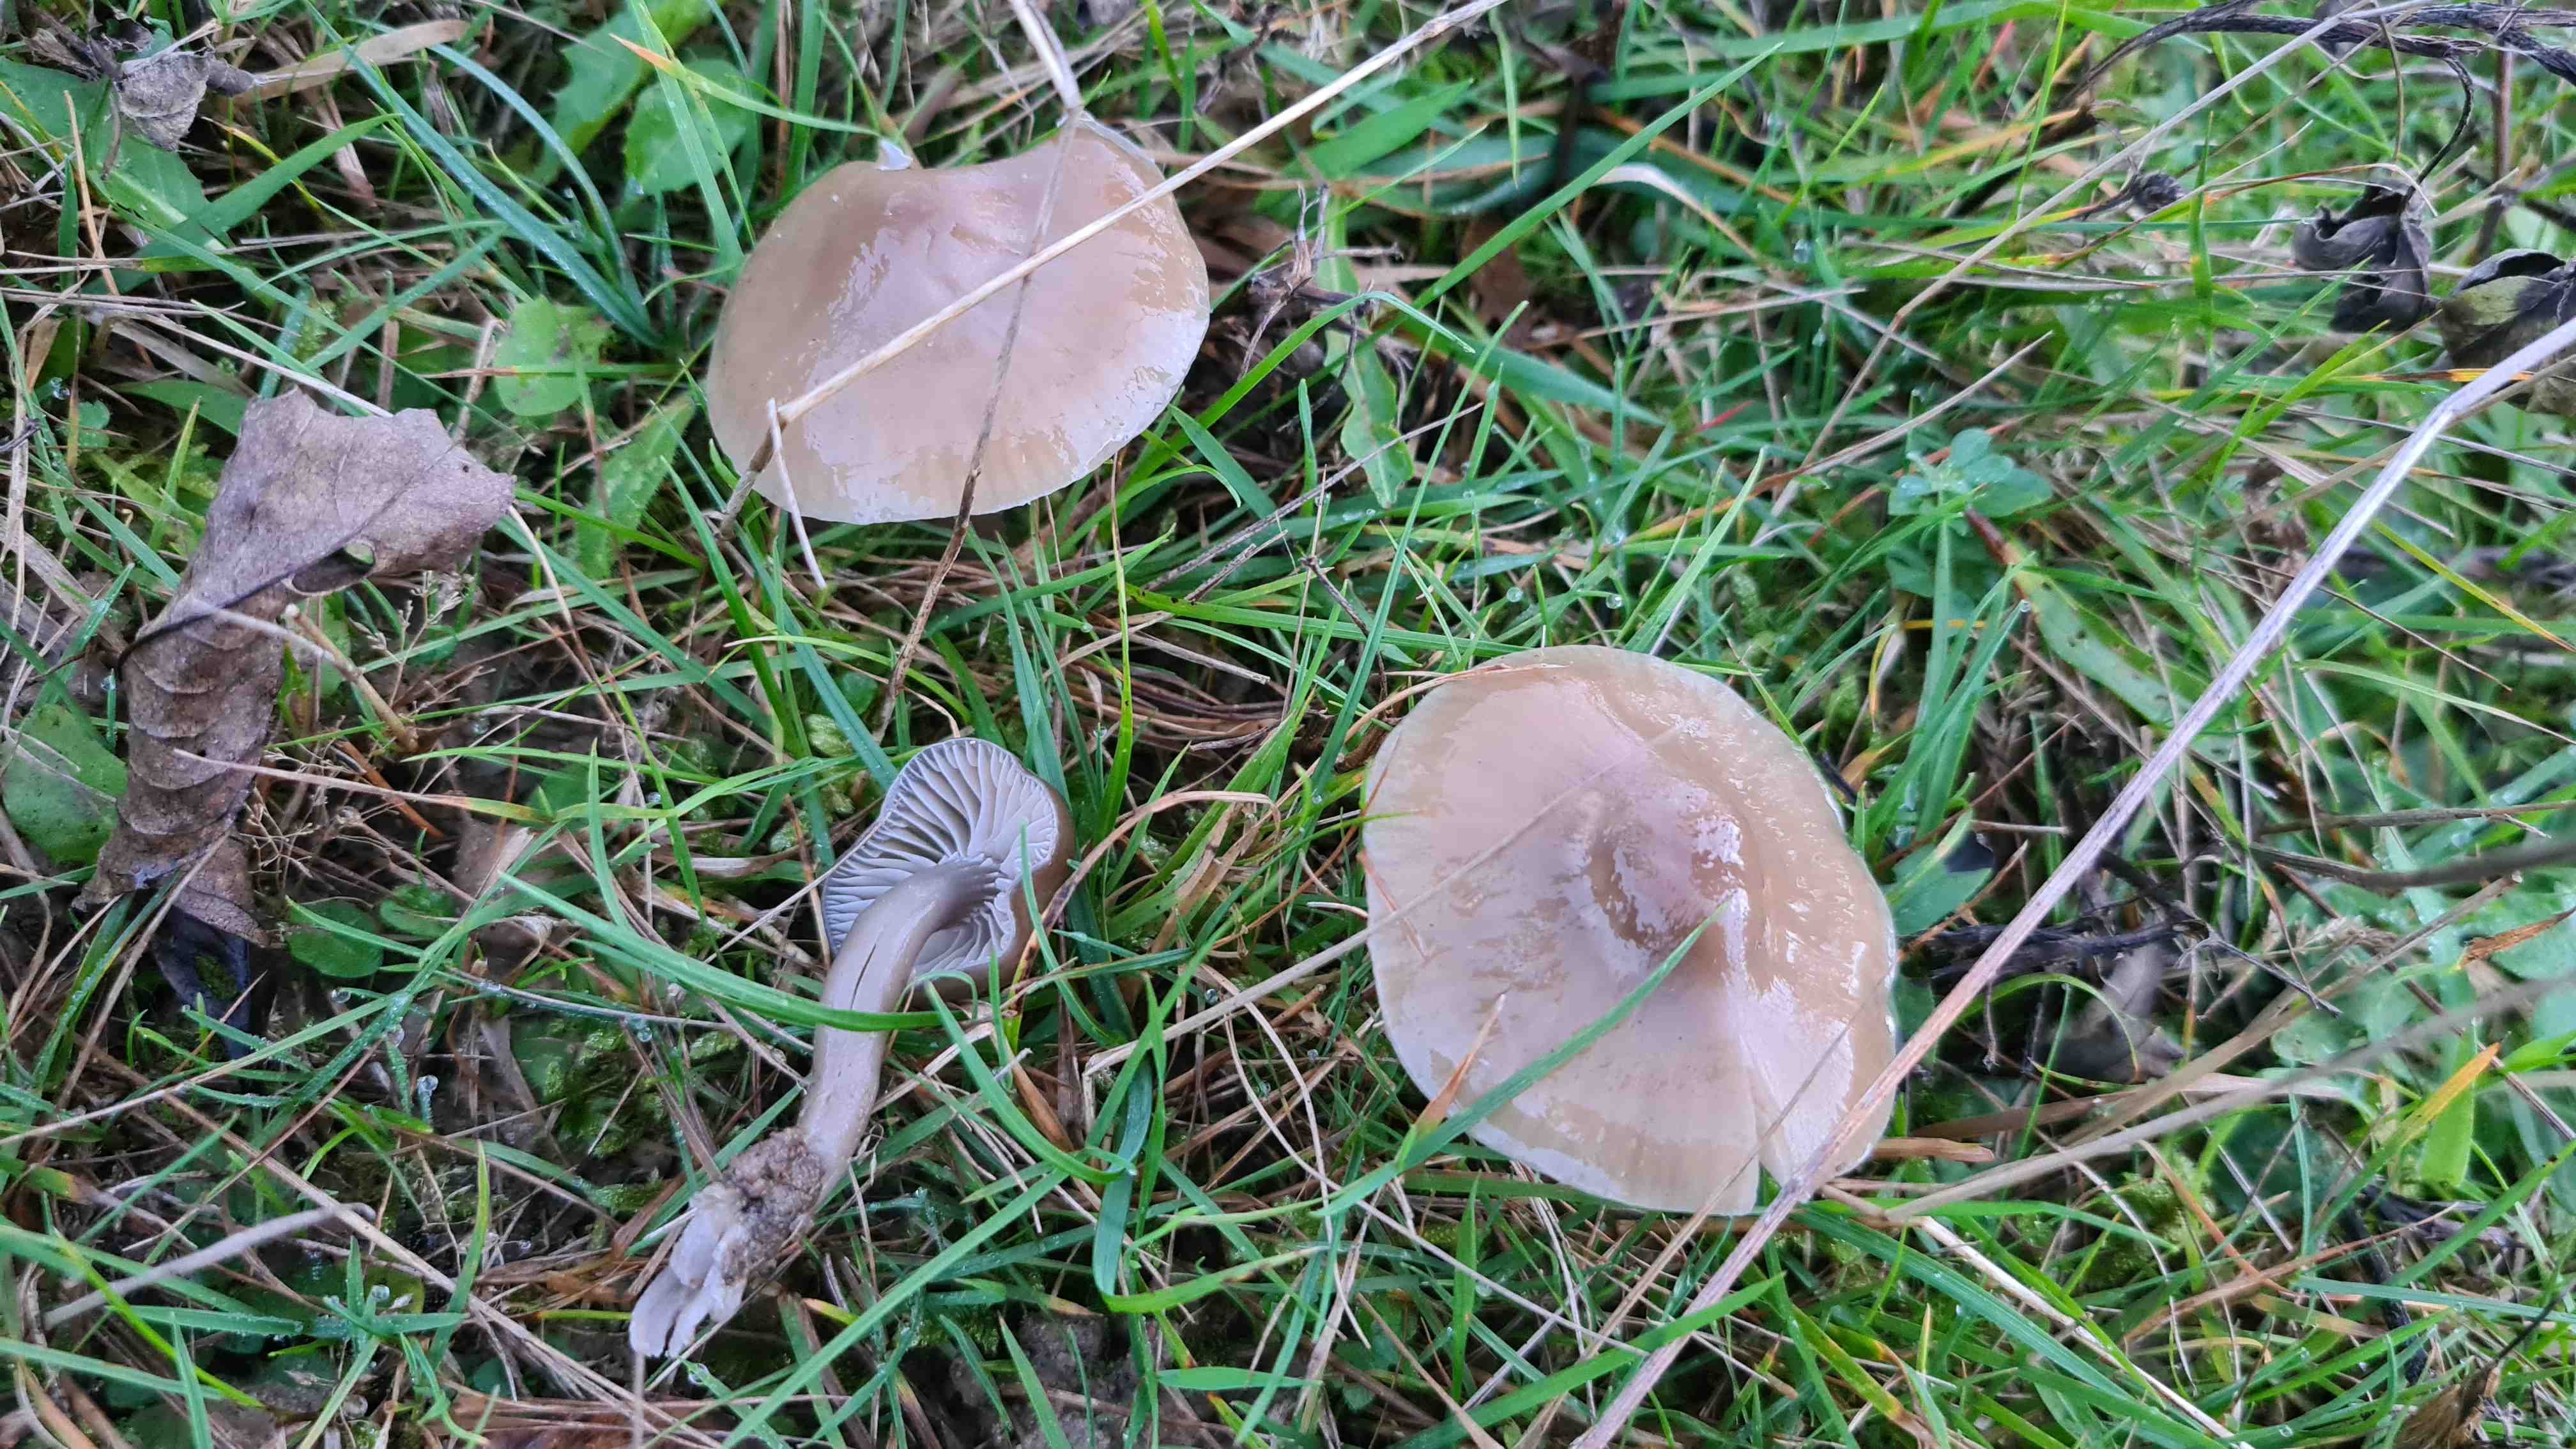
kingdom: Fungi
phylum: Basidiomycota
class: Agaricomycetes
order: Agaricales
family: Hygrophoraceae
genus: Gliophorus
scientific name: Gliophorus irrigatus
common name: slimet vokshat
